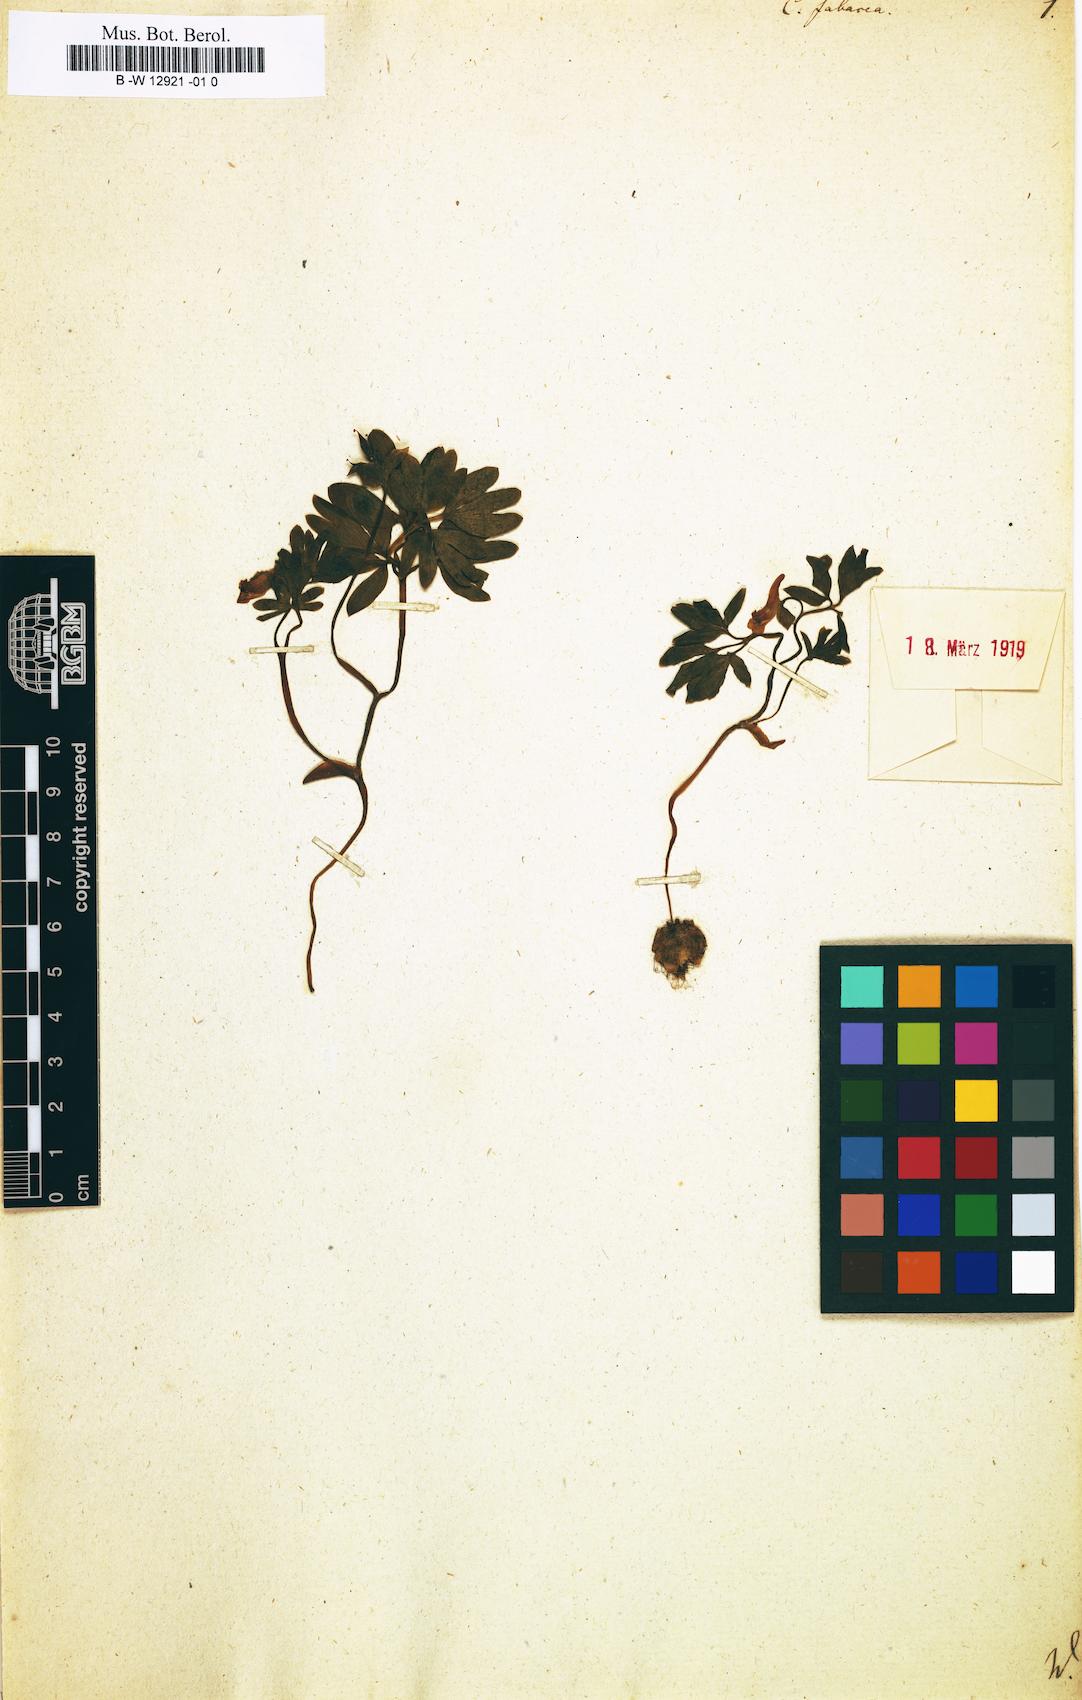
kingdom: Plantae
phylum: Tracheophyta
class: Magnoliopsida
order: Ranunculales
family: Papaveraceae
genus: Corydalis
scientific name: Corydalis intermedia
